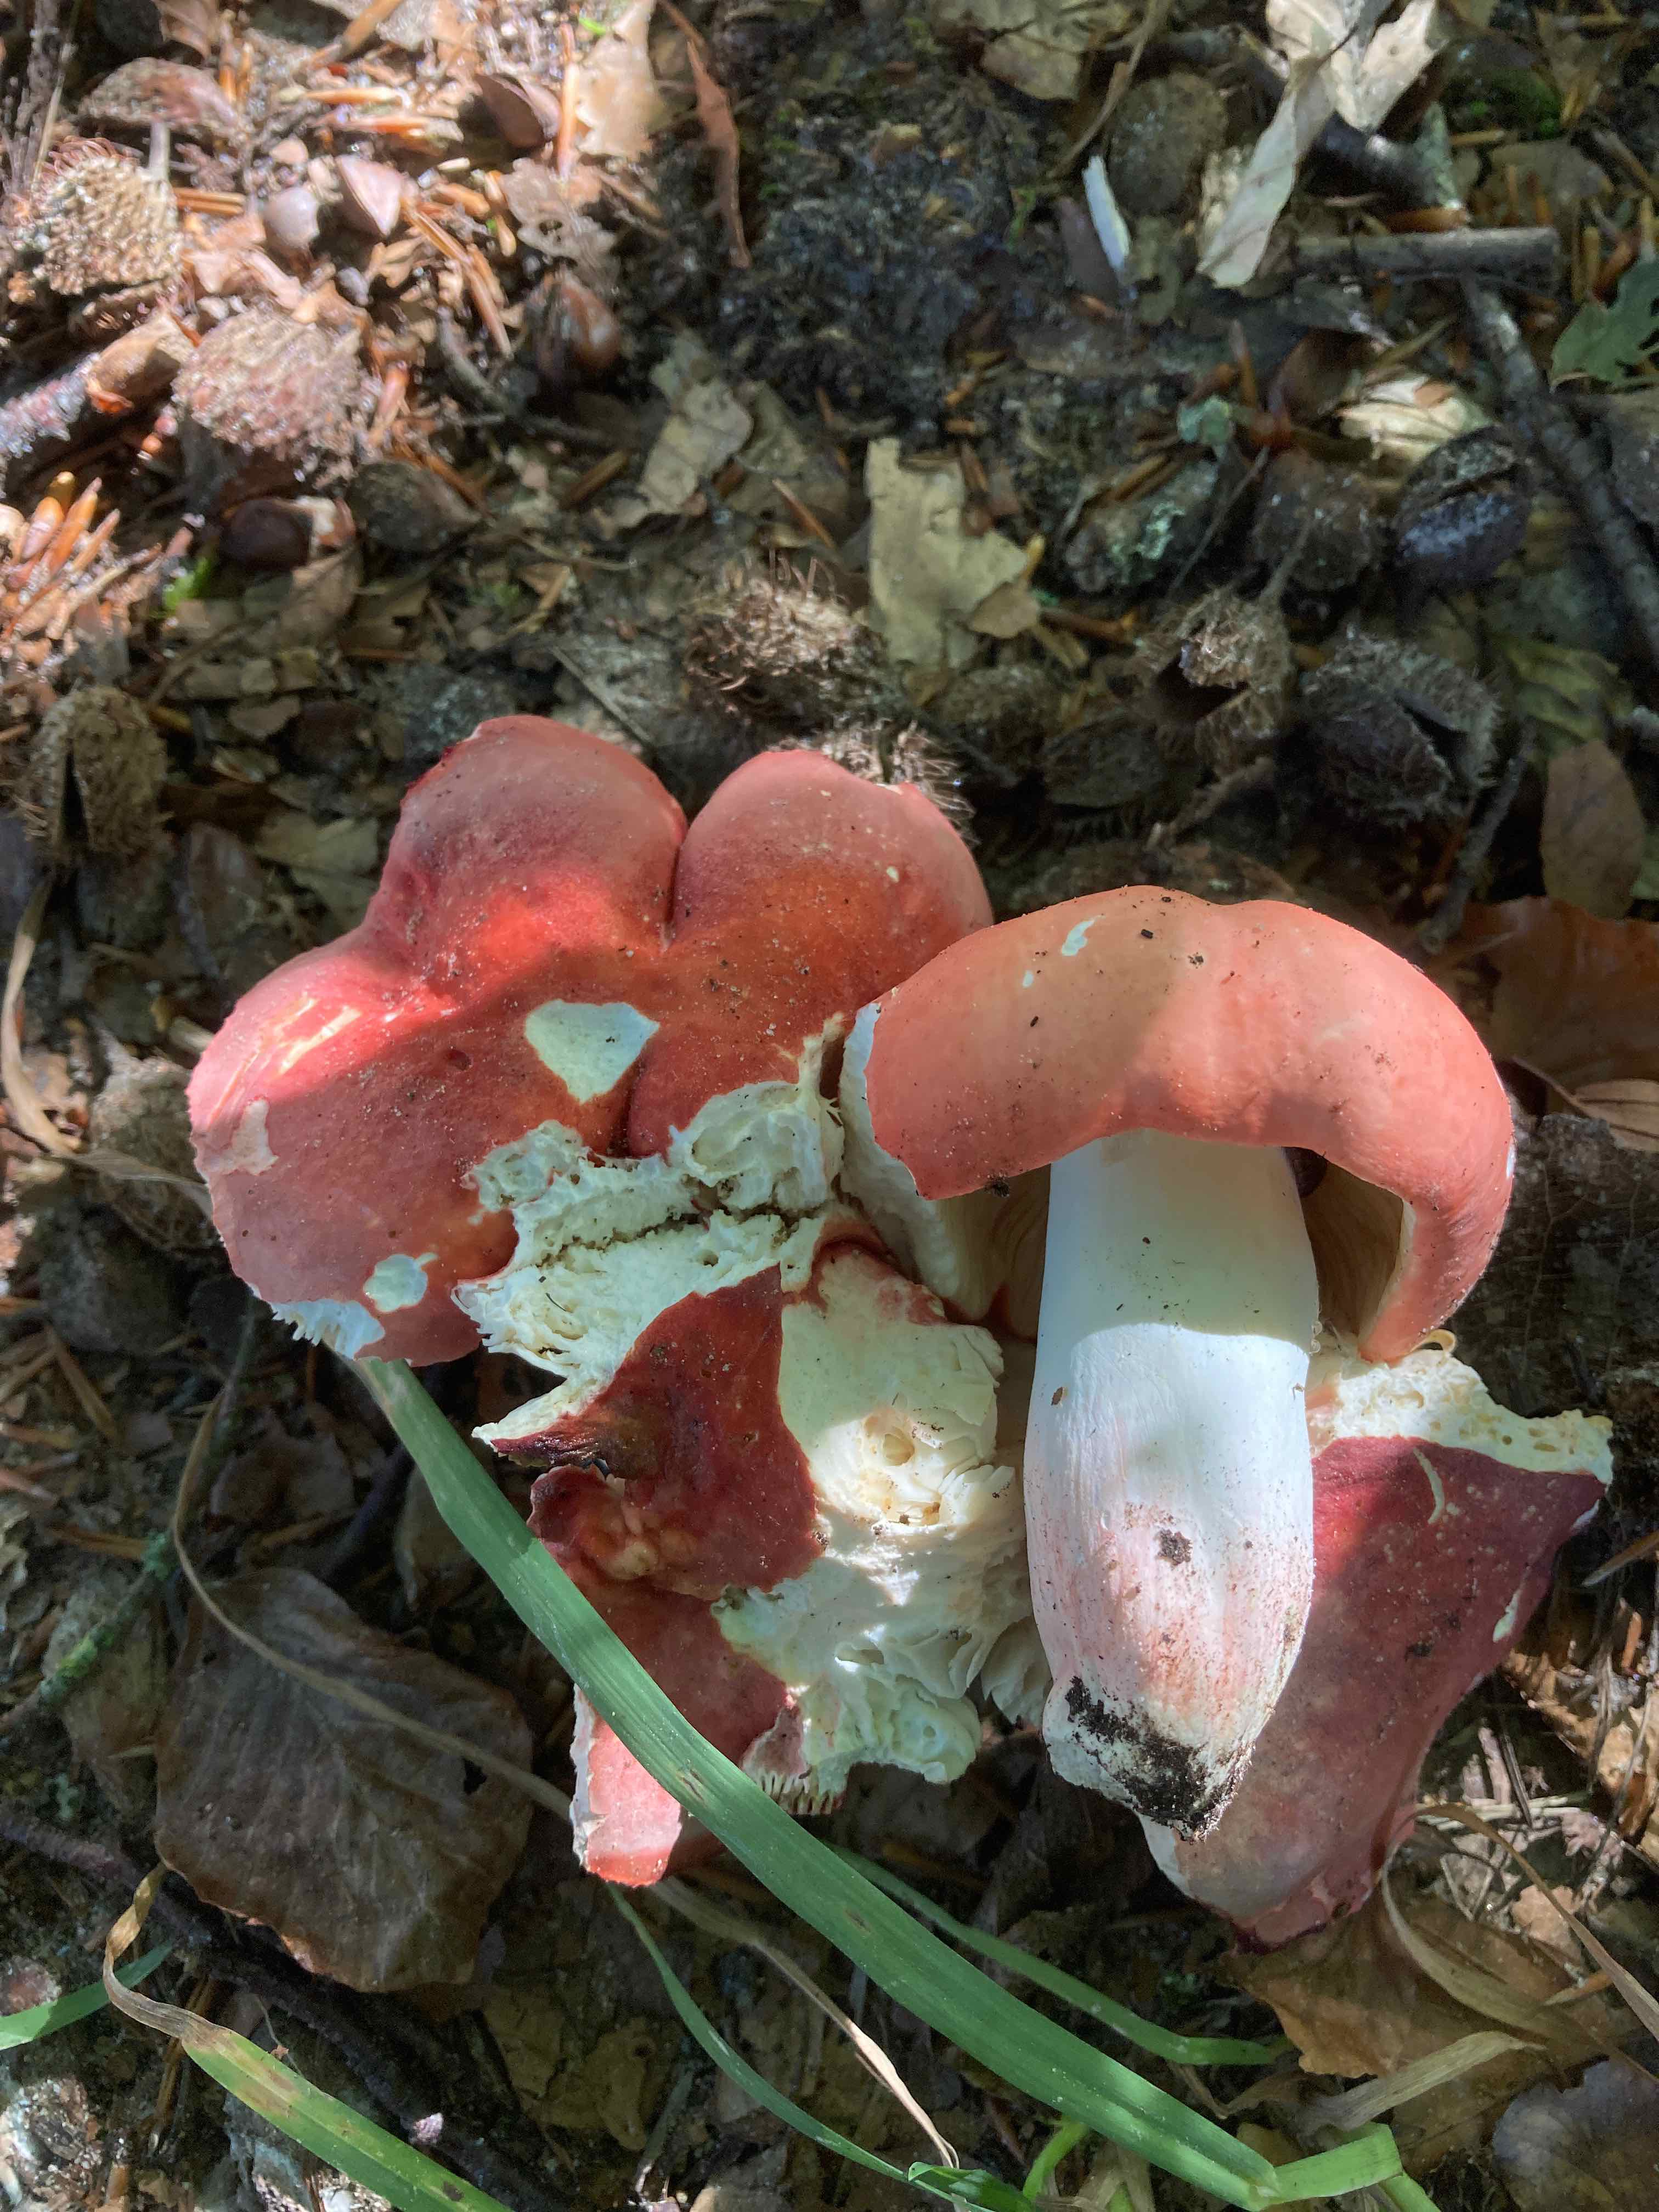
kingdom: Fungi
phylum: Basidiomycota
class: Agaricomycetes
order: Russulales
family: Russulaceae
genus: Russula
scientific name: Russula rosea
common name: fastkødet skørhat
